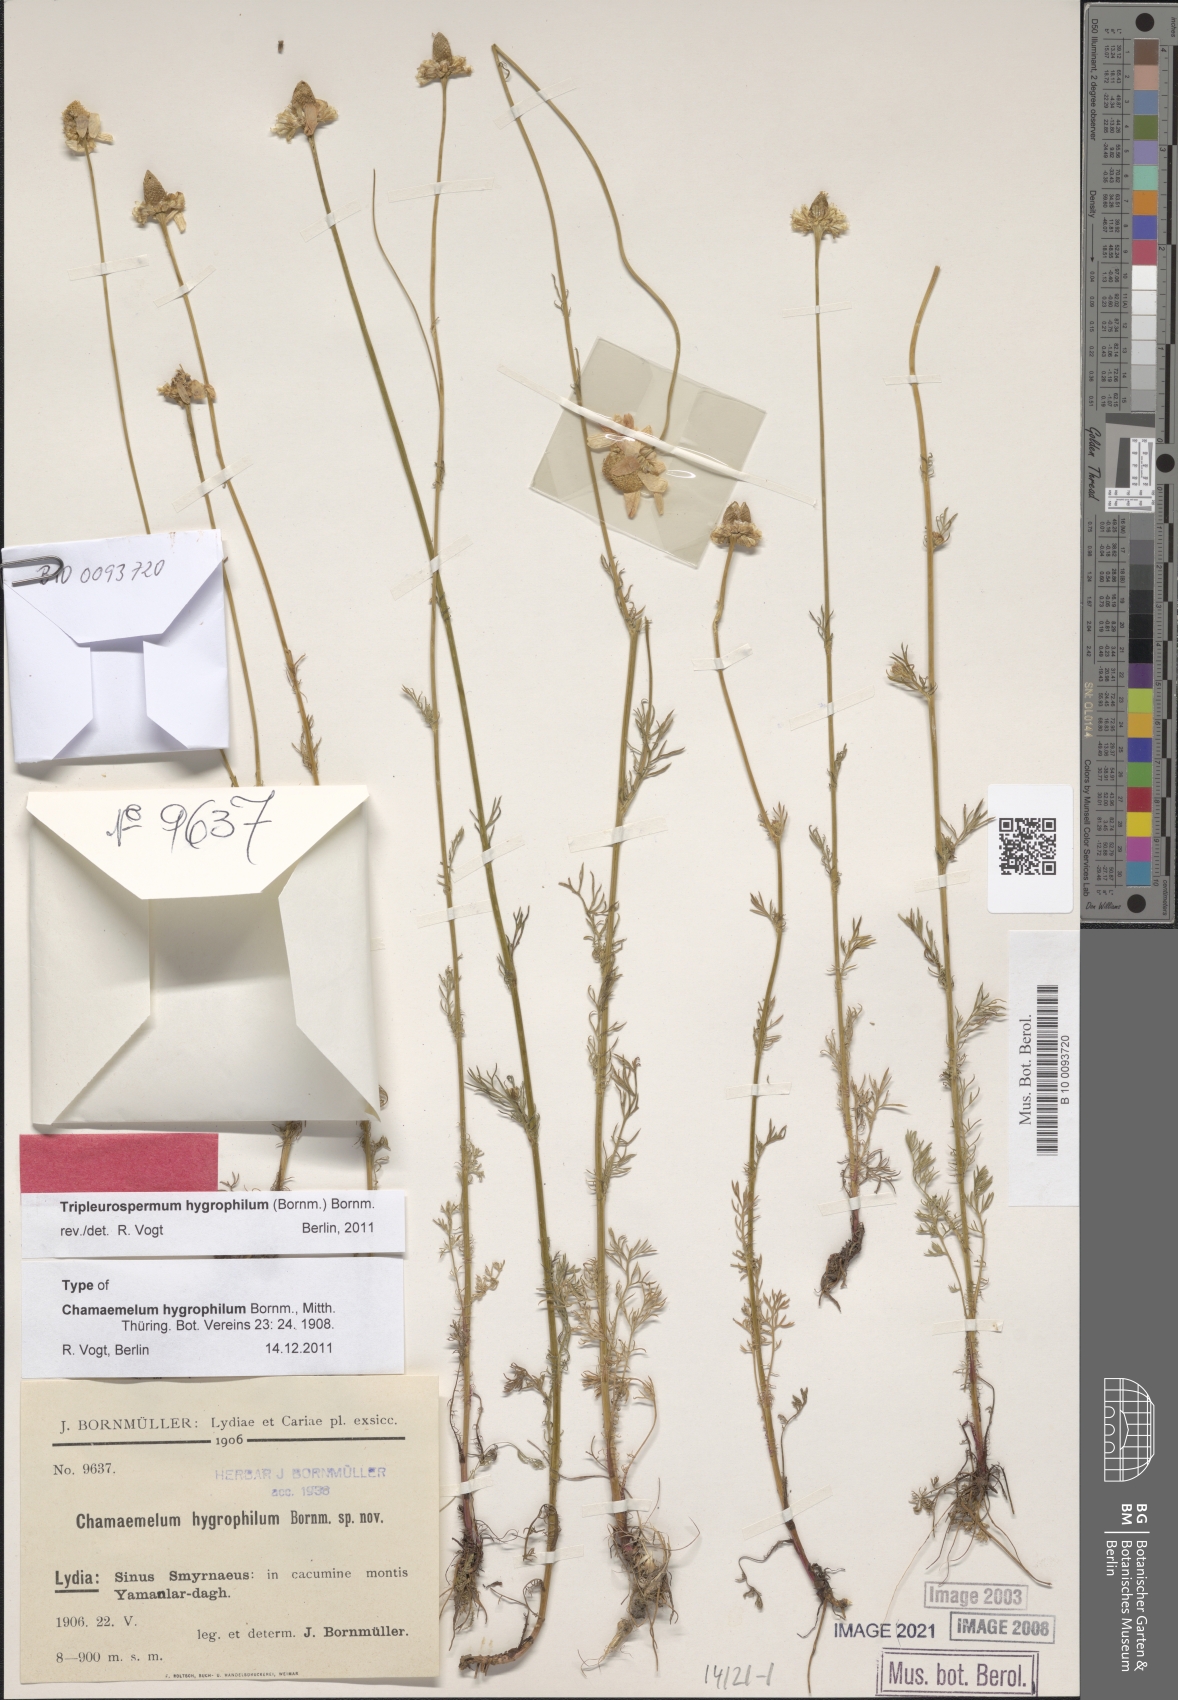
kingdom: Plantae
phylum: Tracheophyta
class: Magnoliopsida
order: Asterales
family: Asteraceae
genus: Tripleurospermum
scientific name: Tripleurospermum hygrophilum
